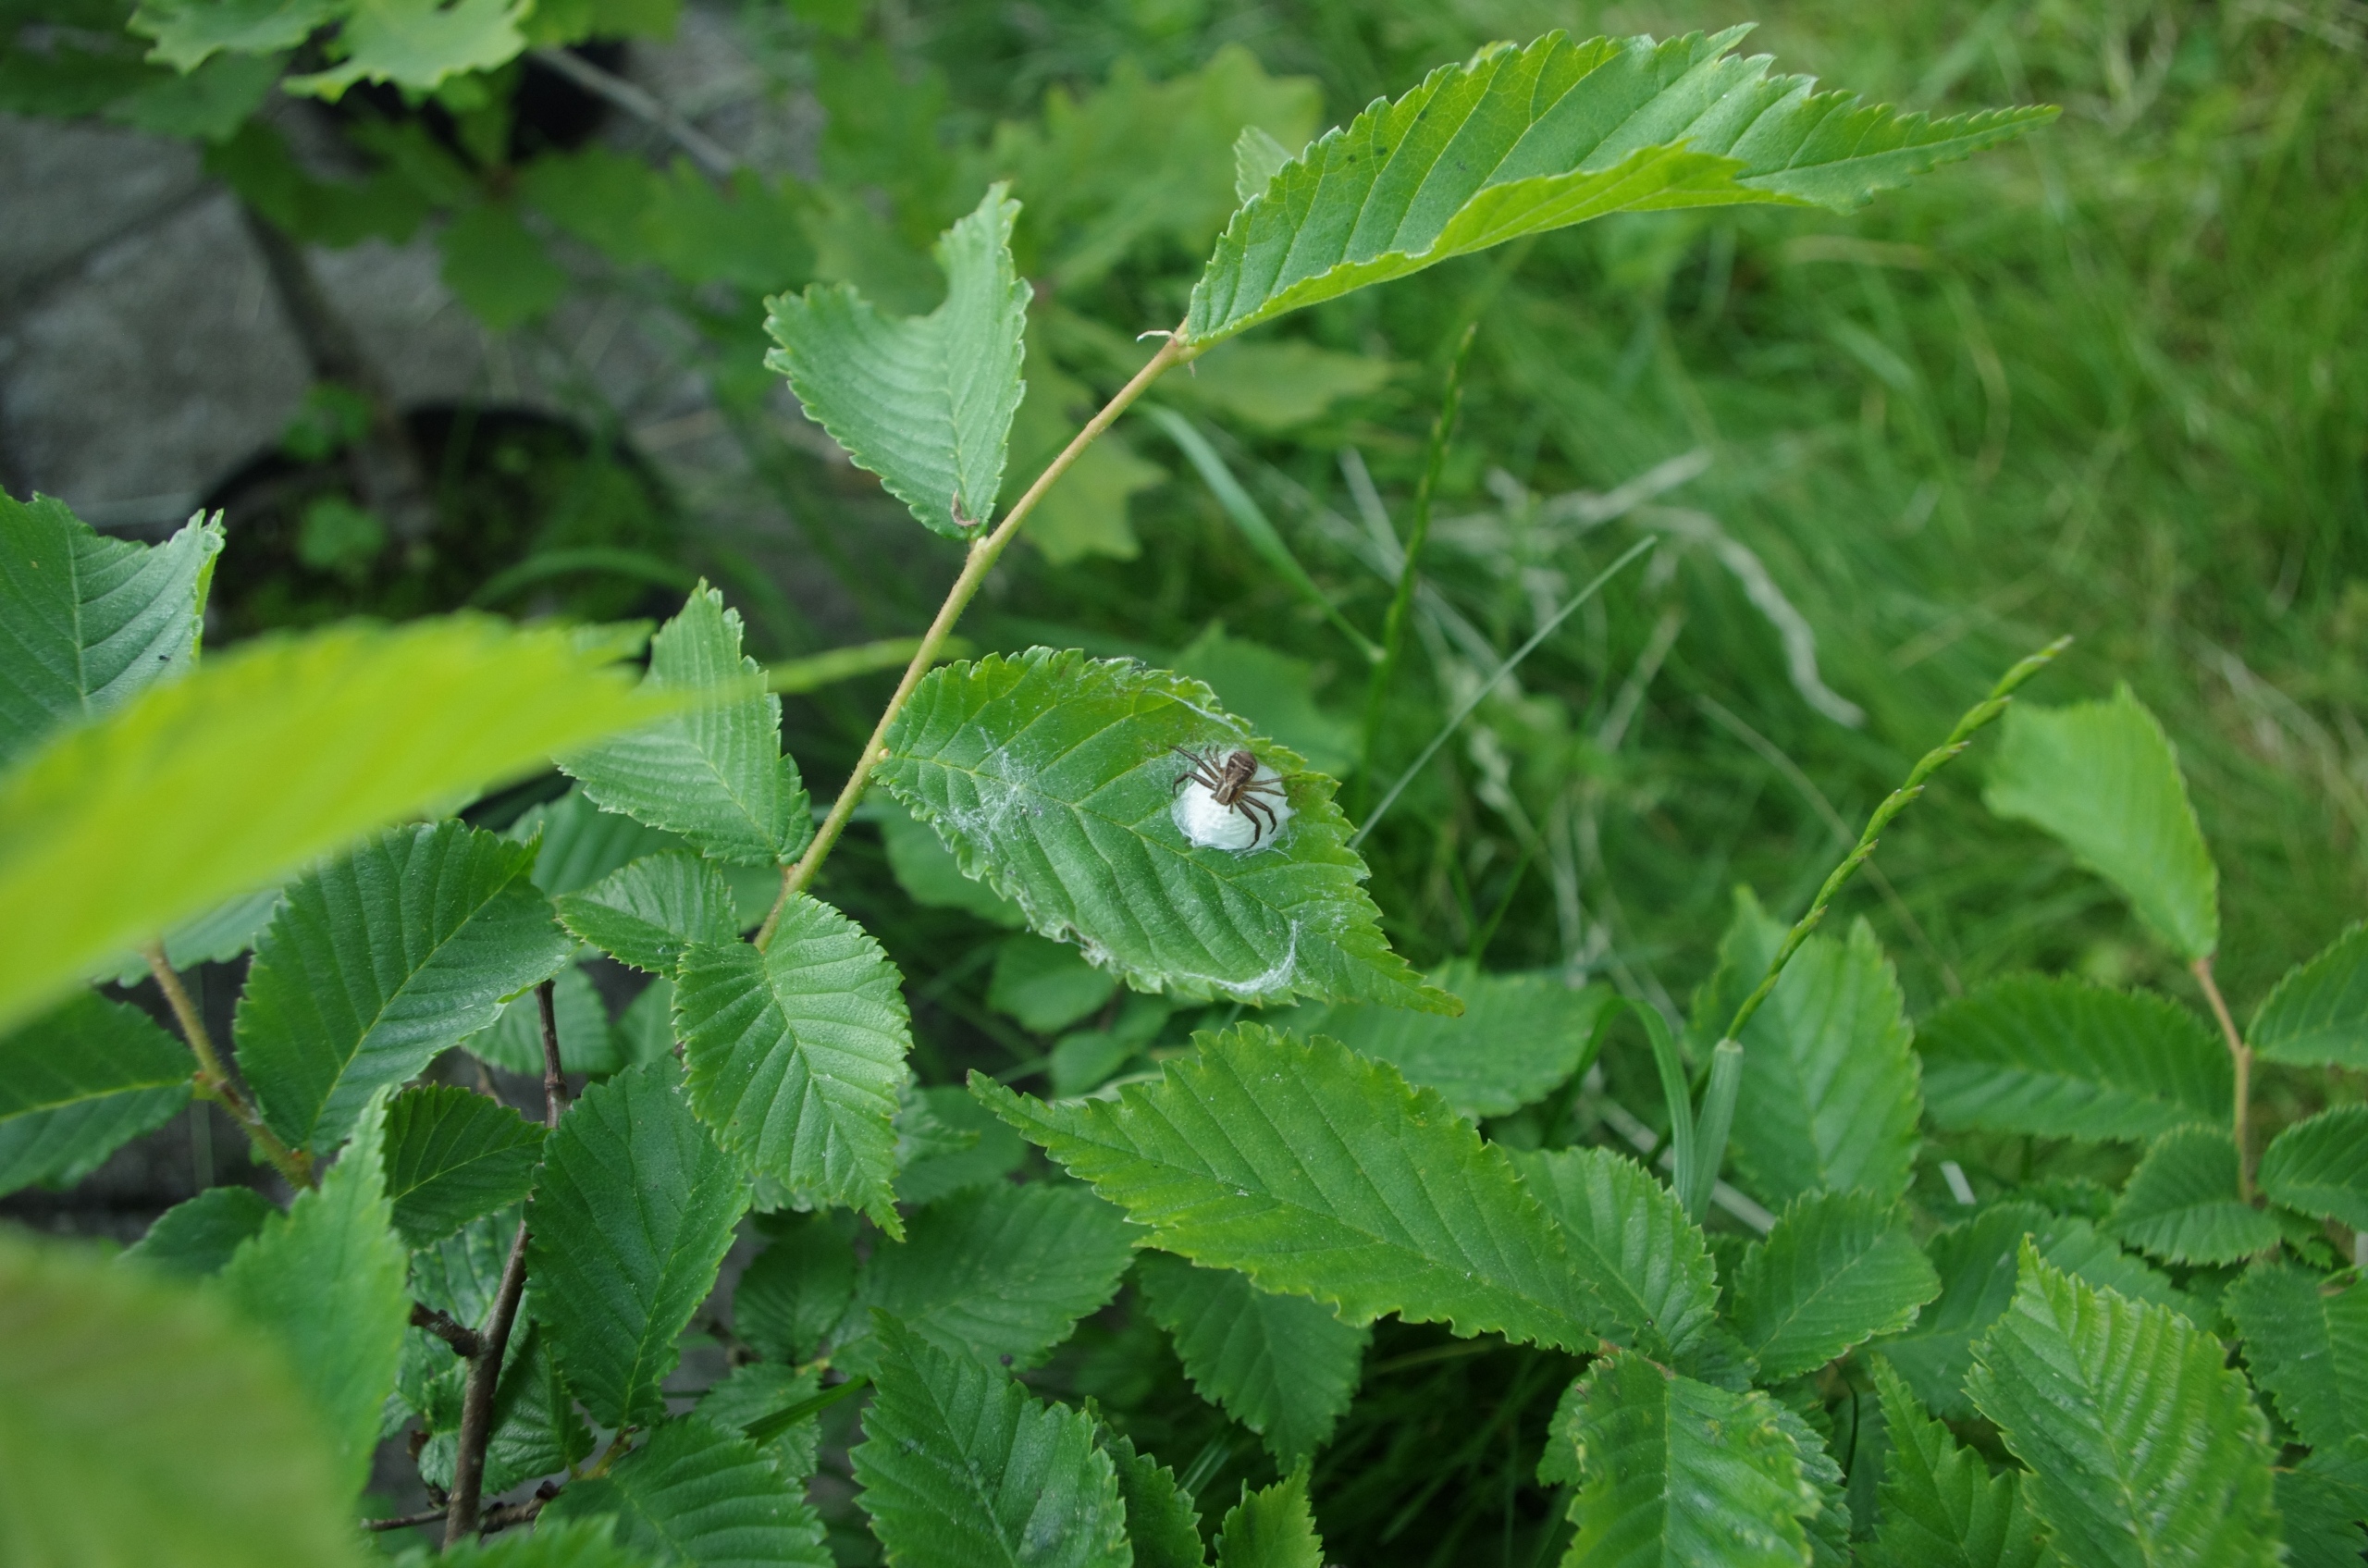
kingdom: Animalia
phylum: Arthropoda
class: Arachnida
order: Araneae
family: Thomisidae
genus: Xysticus
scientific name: Xysticus ulmi
